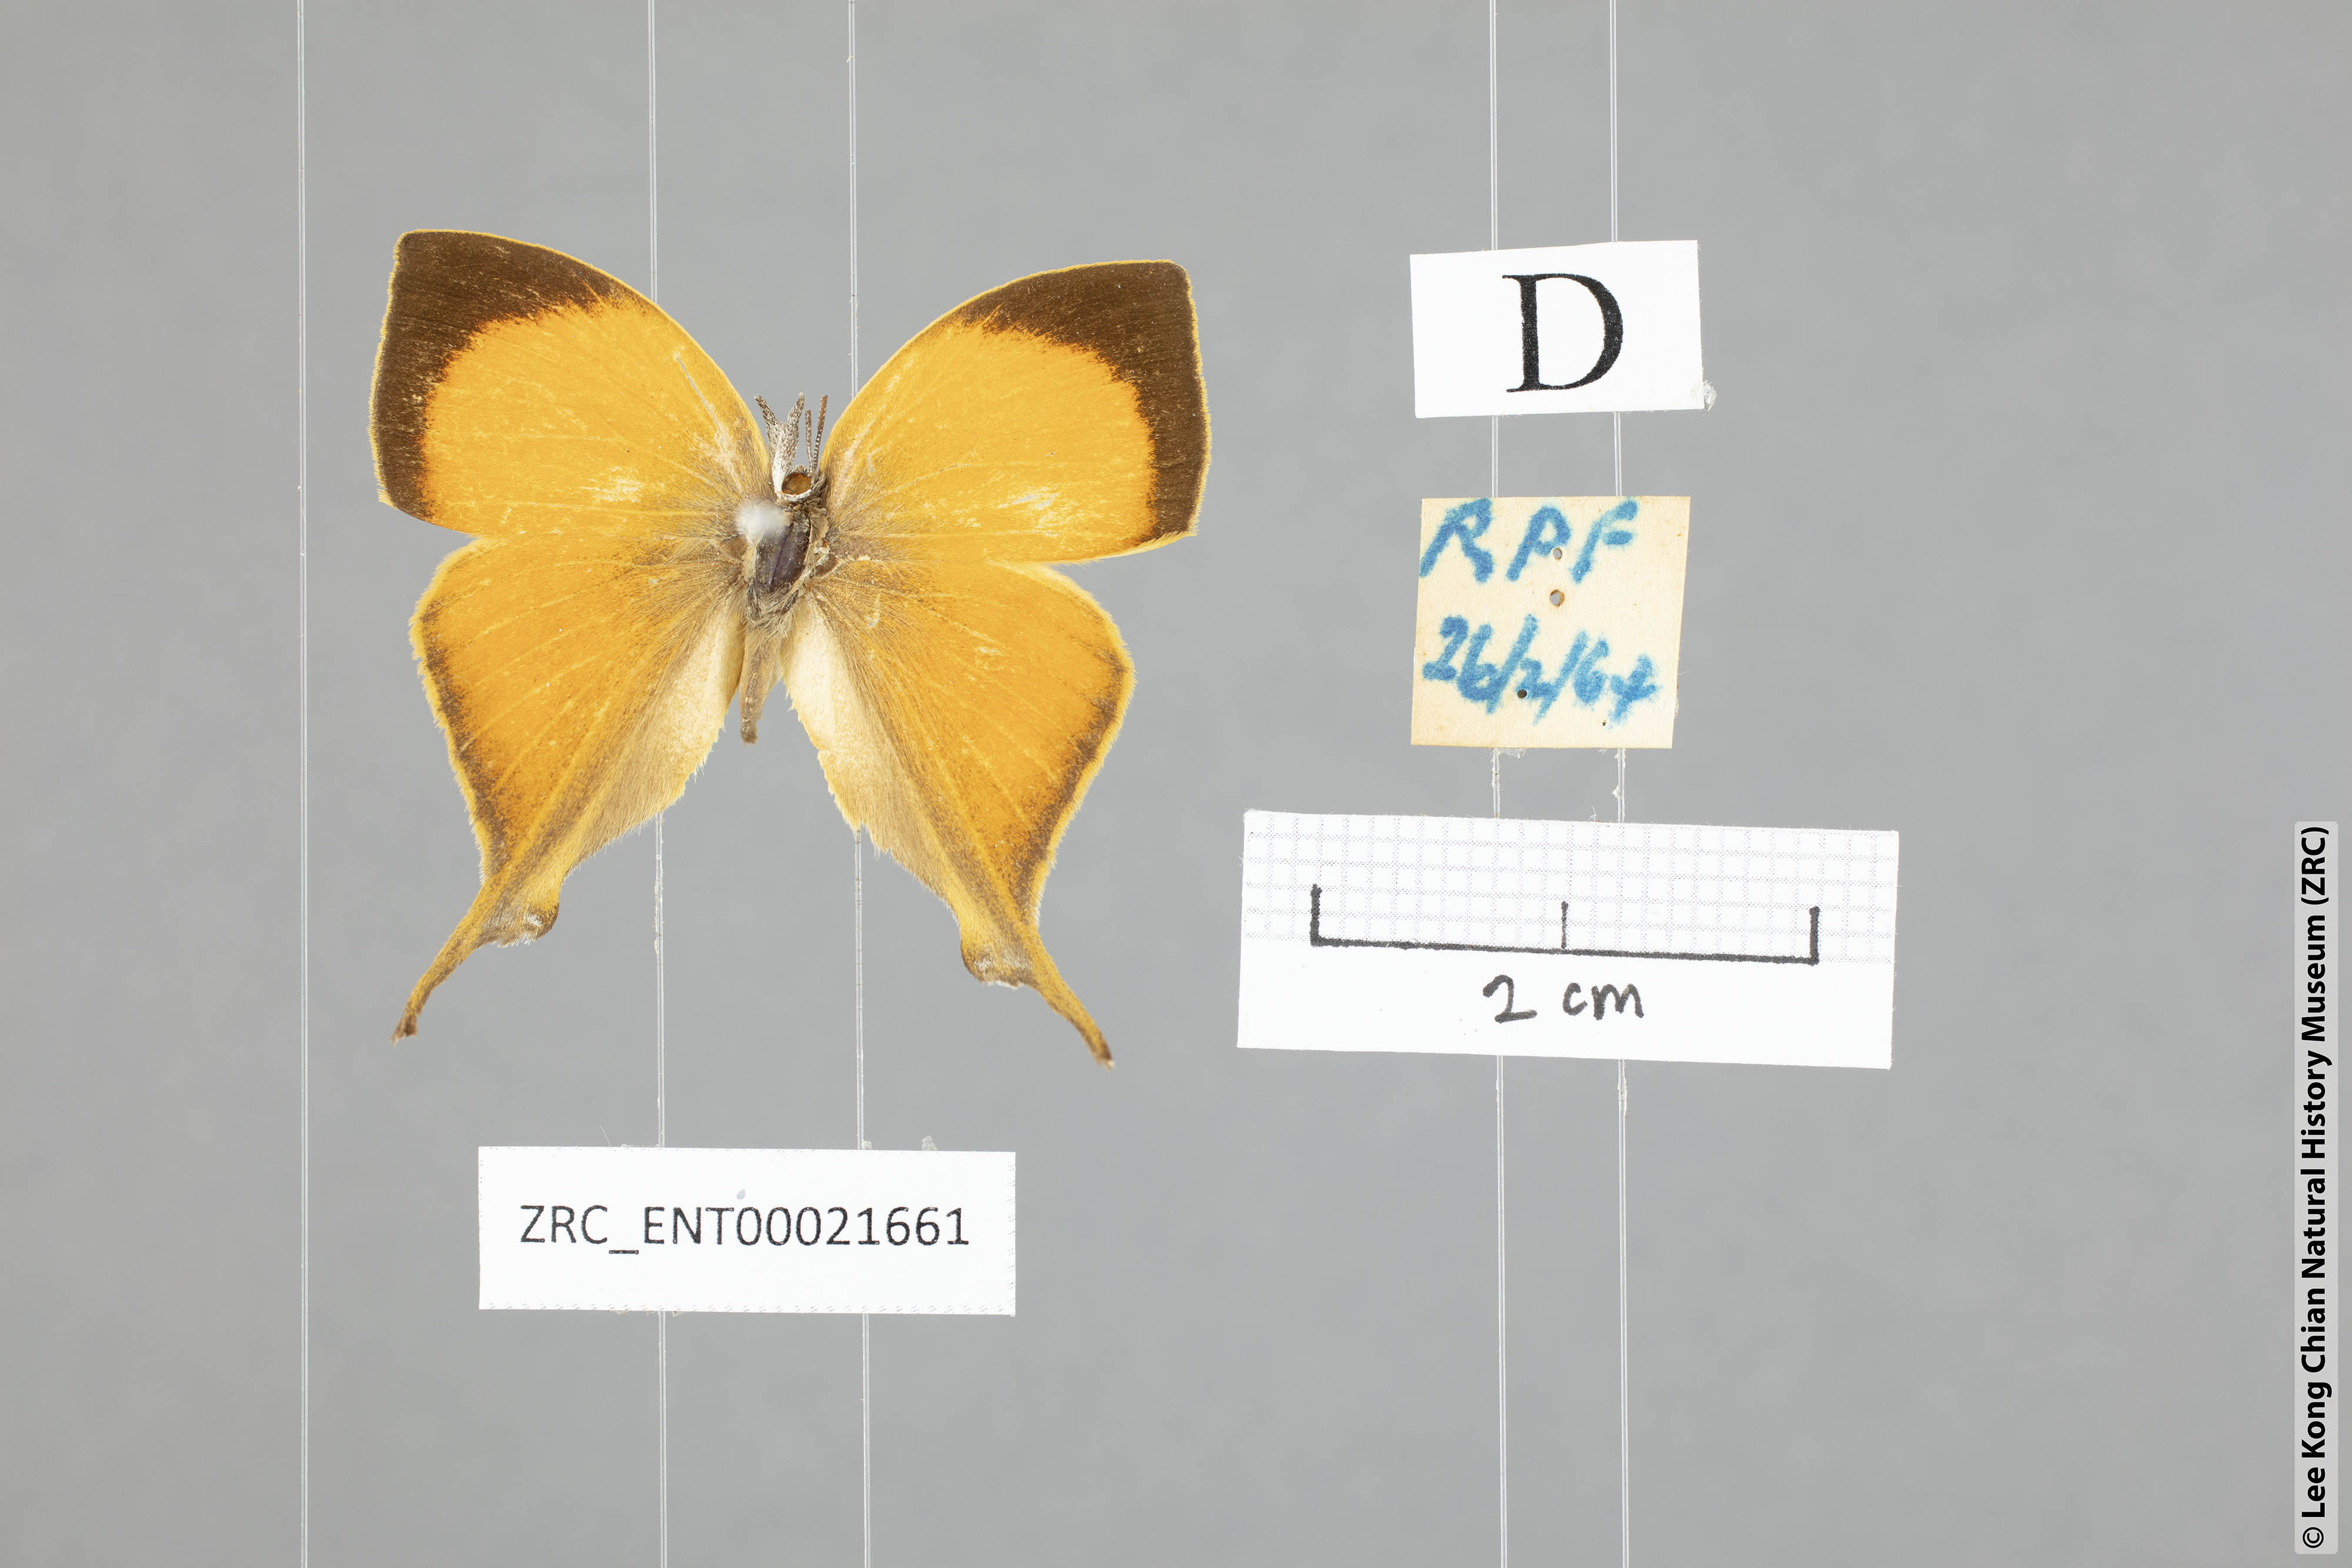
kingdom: Animalia
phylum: Arthropoda
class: Insecta
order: Lepidoptera
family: Lycaenidae
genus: Loxura
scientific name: Loxura atymnus
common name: Common yamfly
